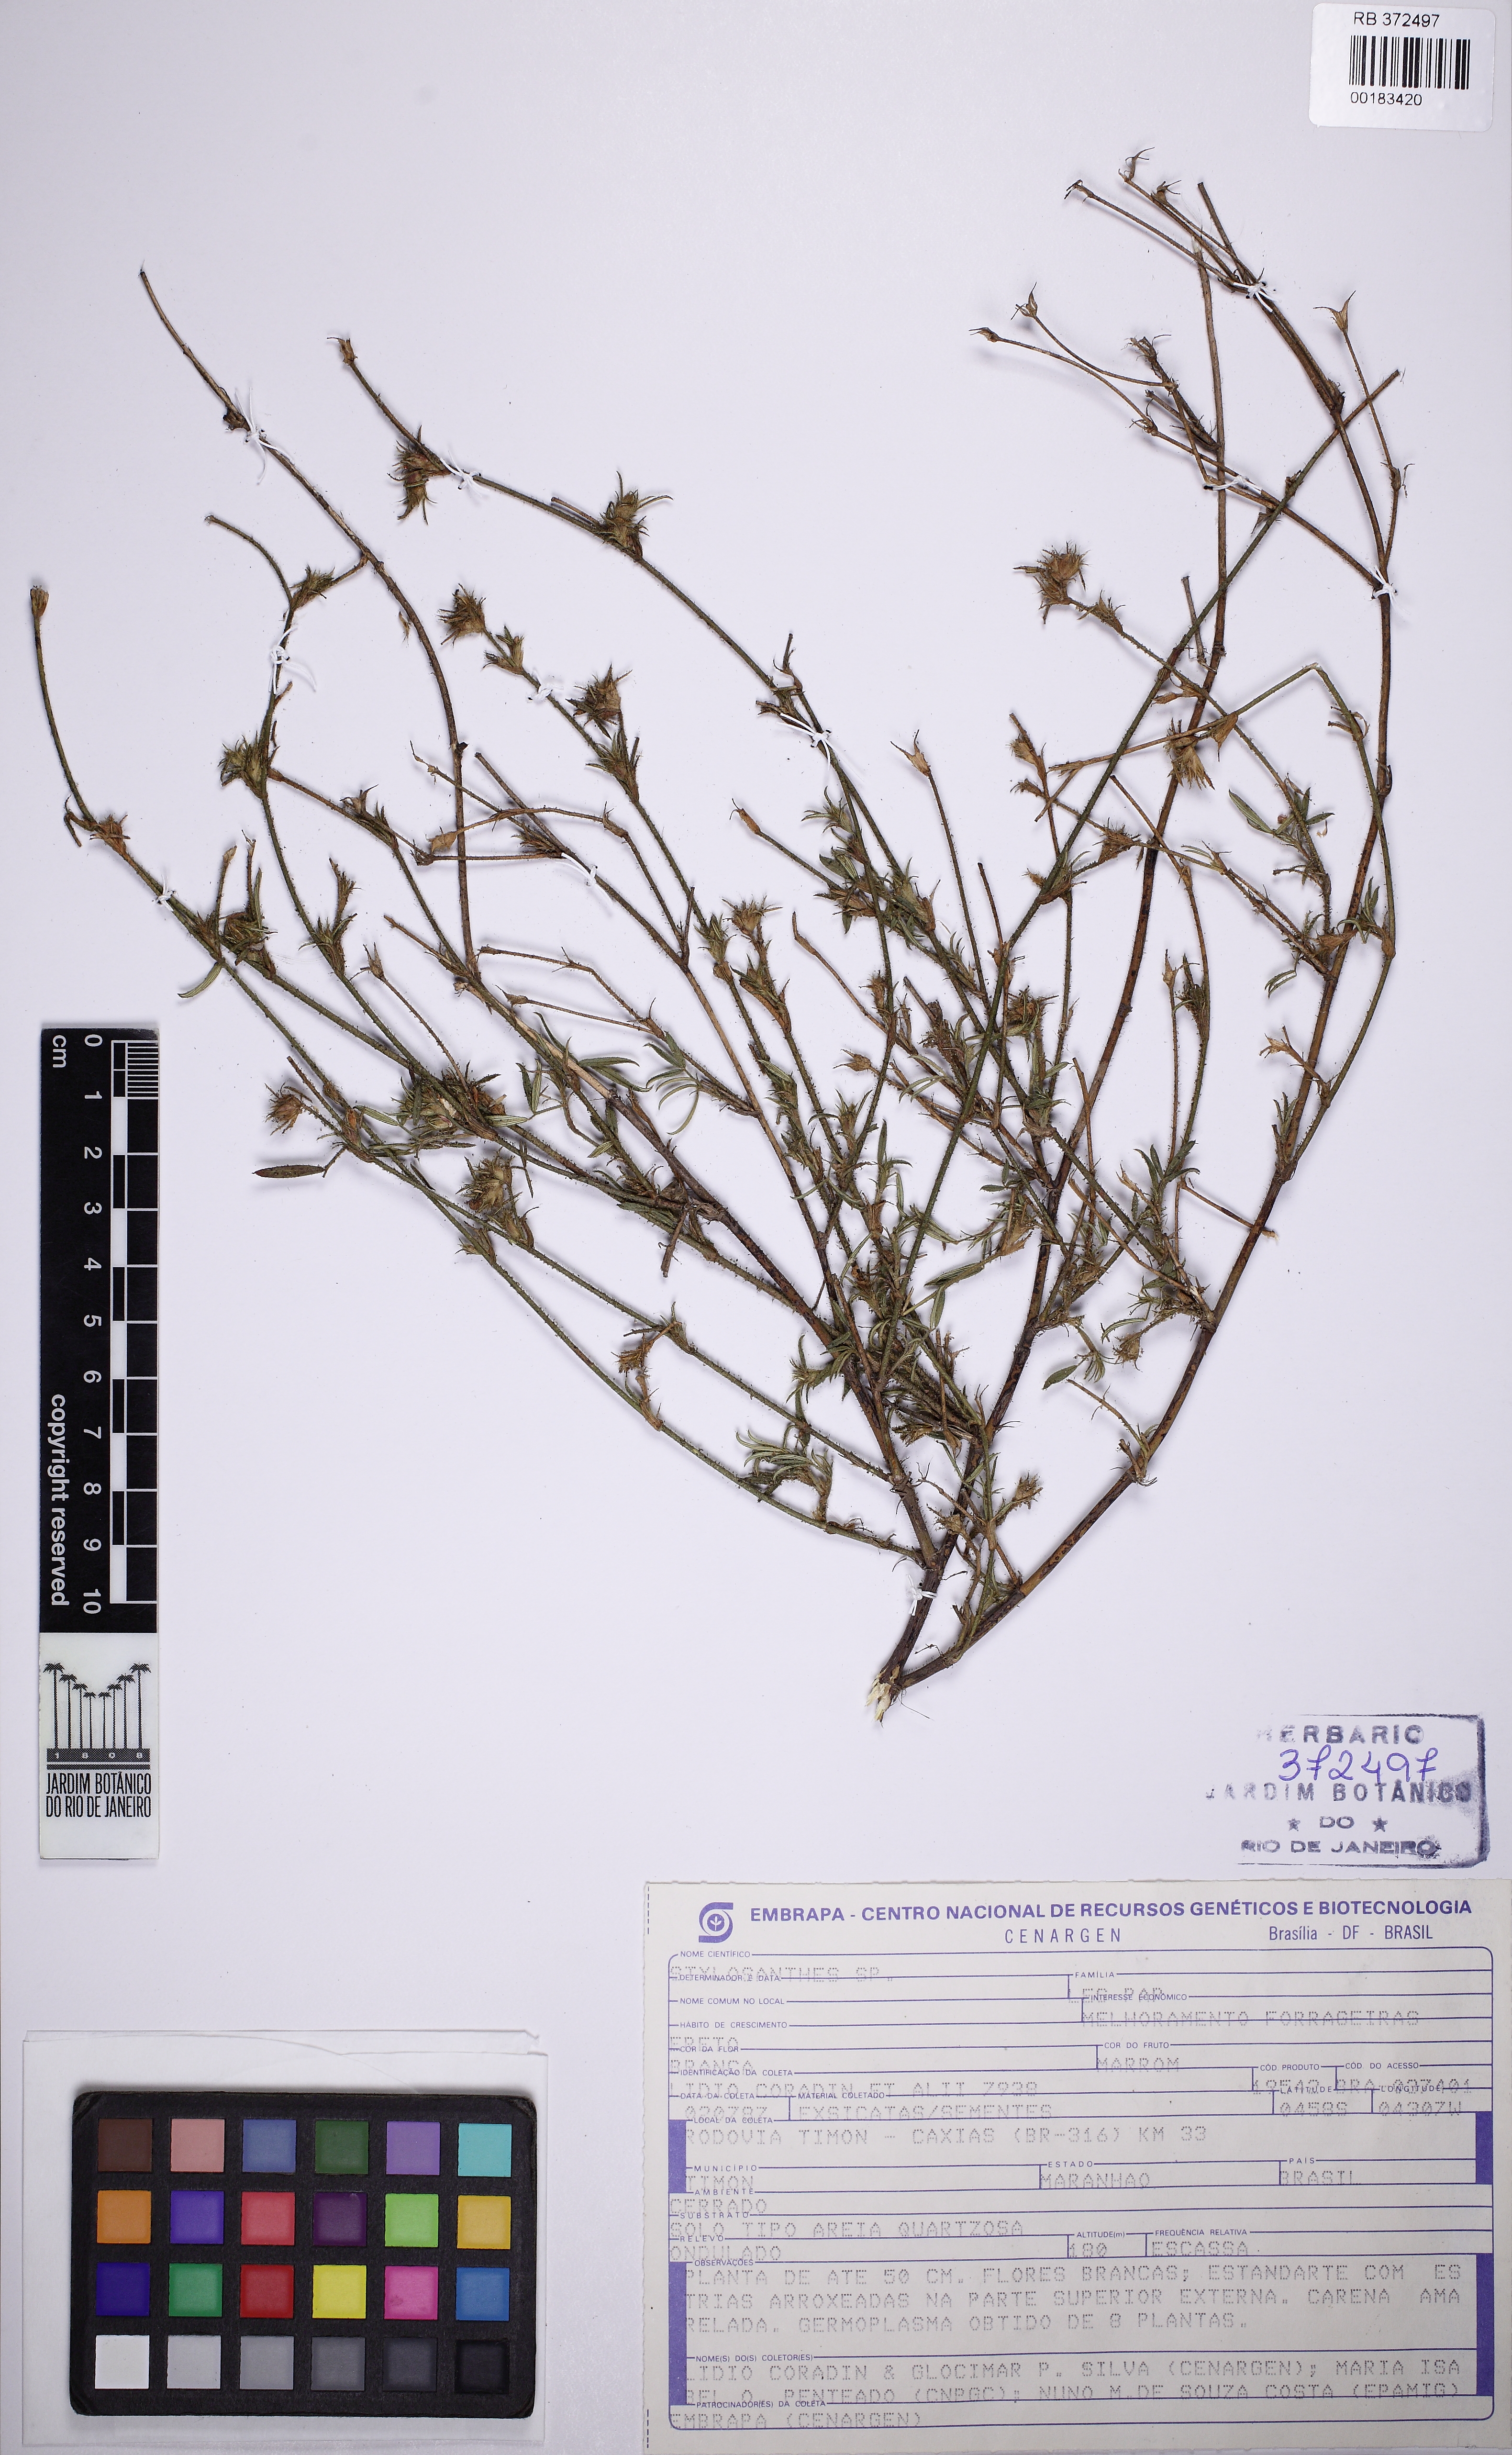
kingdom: Plantae
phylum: Tracheophyta
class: Magnoliopsida
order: Fabales
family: Fabaceae
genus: Stylosanthes
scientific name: Stylosanthes
